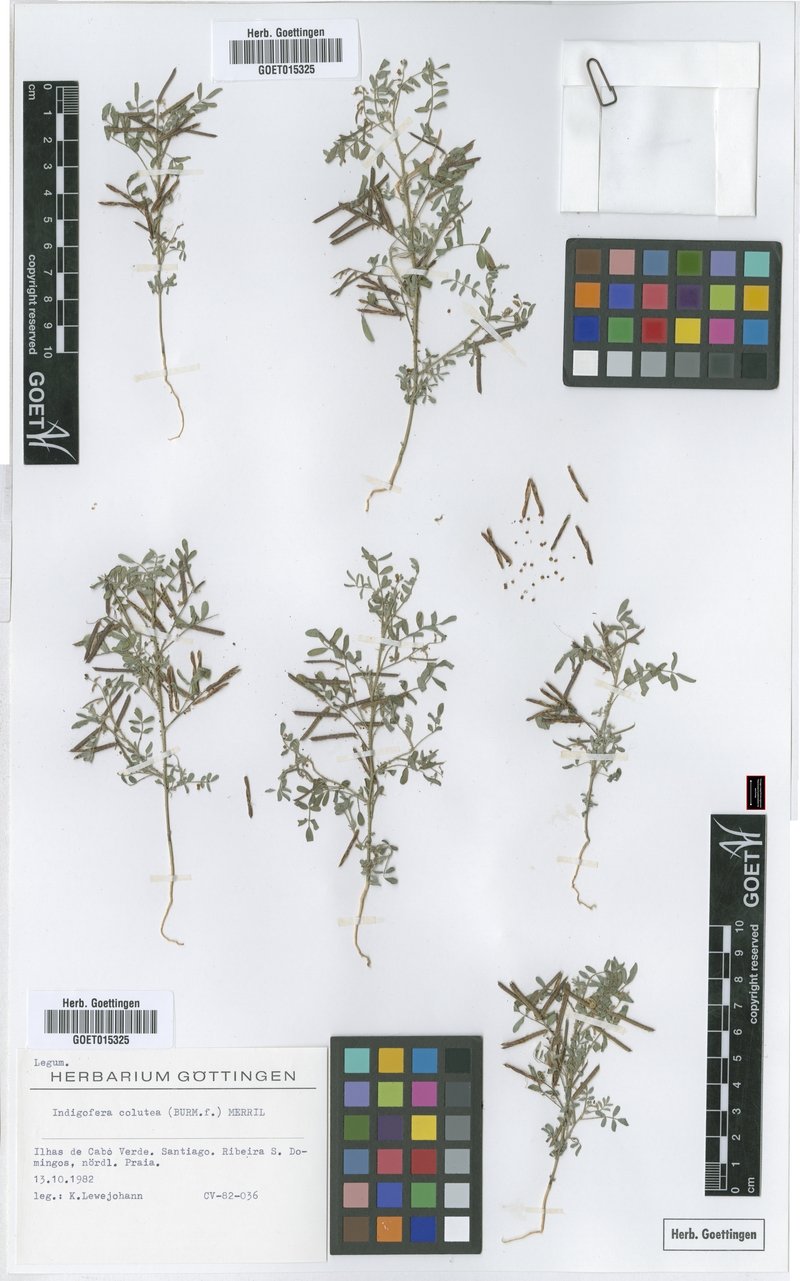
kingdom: Plantae
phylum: Tracheophyta
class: Magnoliopsida
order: Fabales
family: Fabaceae
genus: Indigofera
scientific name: Indigofera colutea
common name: Rusty indigo
